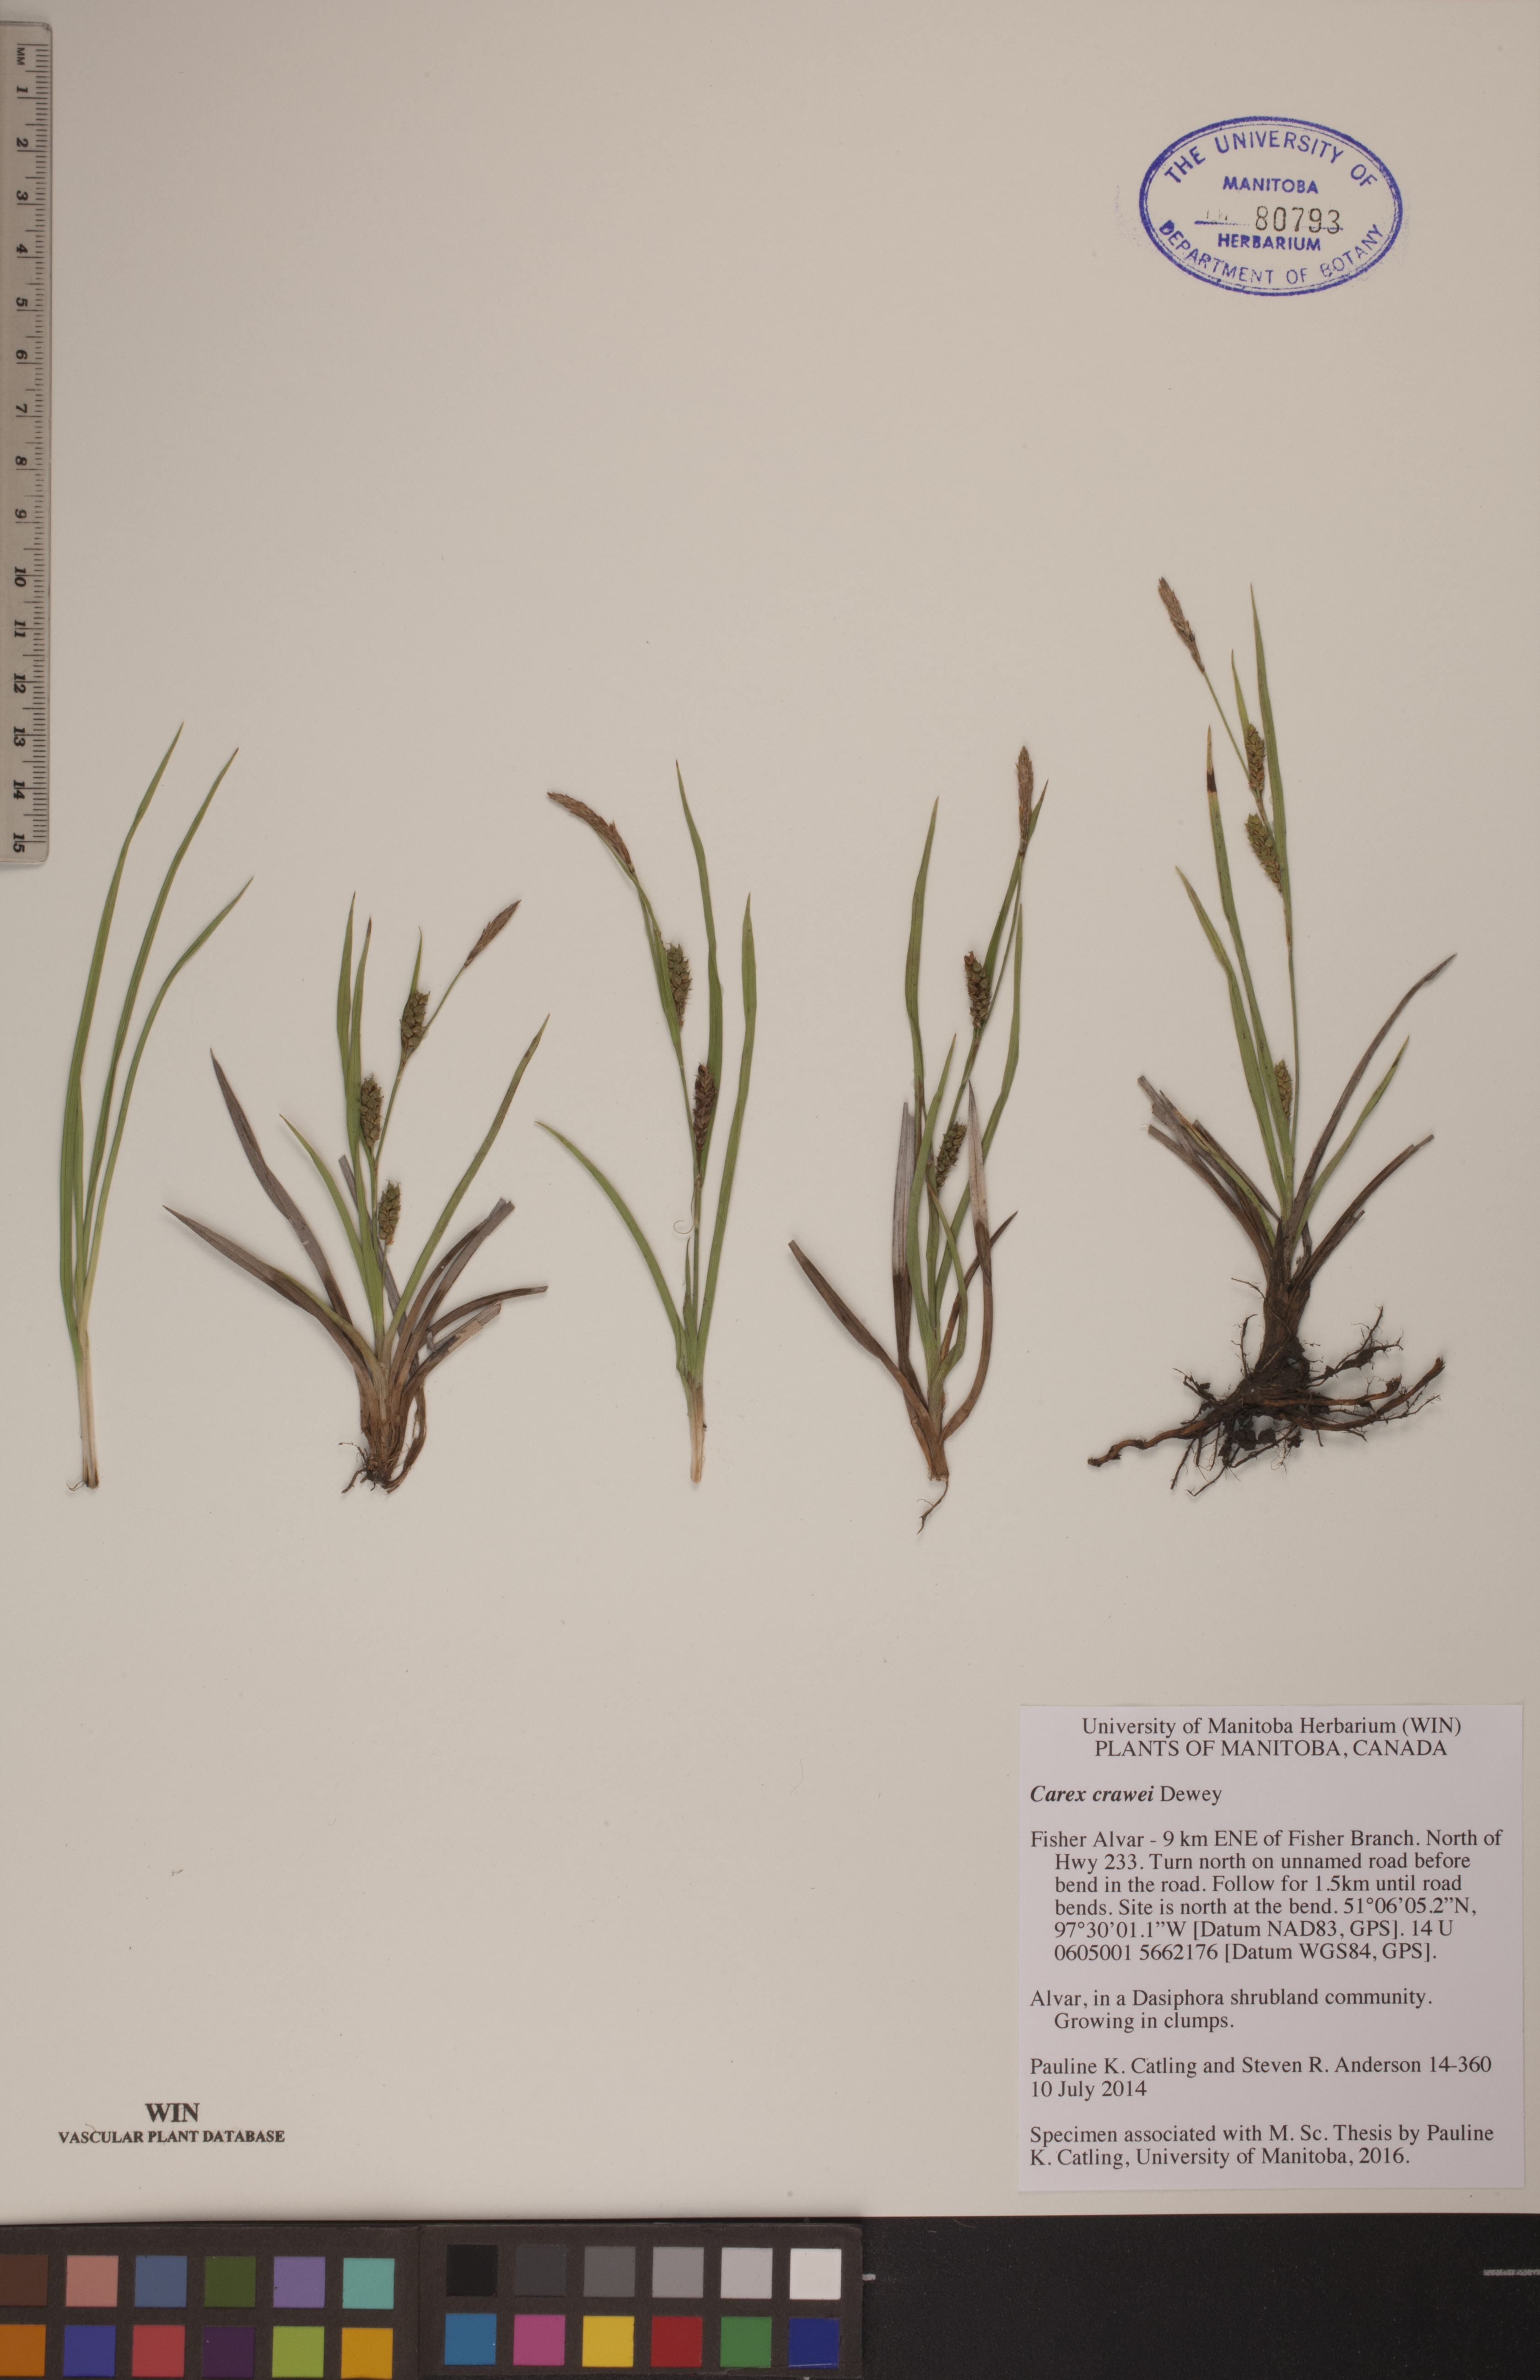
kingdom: Plantae
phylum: Tracheophyta
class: Liliopsida
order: Poales
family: Cyperaceae
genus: Carex
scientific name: Carex crawei
